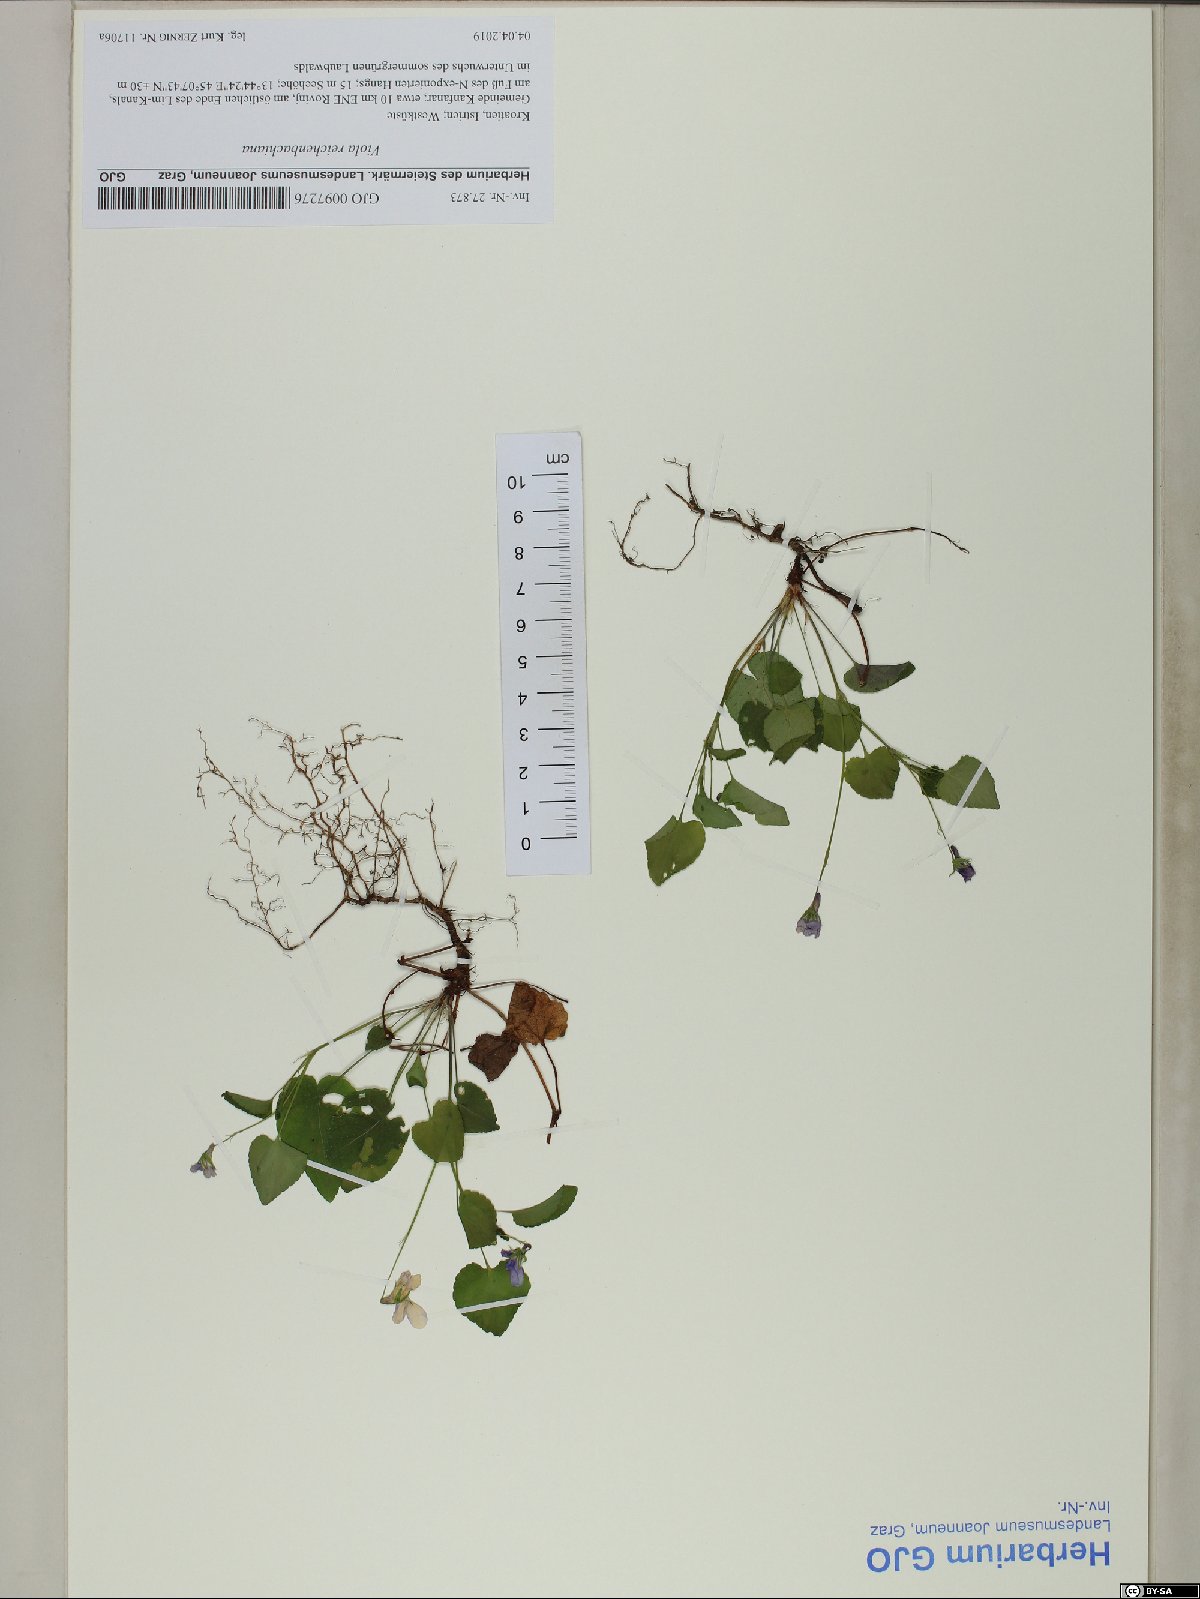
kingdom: Plantae
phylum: Tracheophyta
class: Magnoliopsida
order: Malpighiales
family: Violaceae
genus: Viola
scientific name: Viola reichenbachiana
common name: Early dog-violet
